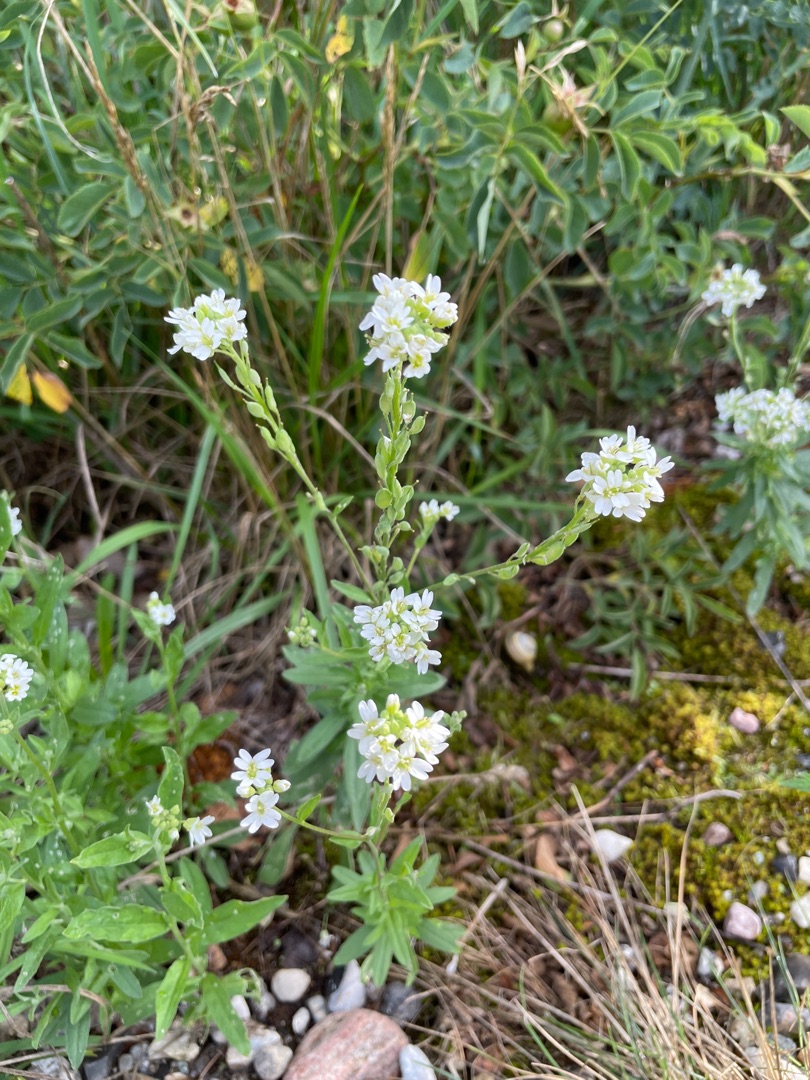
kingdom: Plantae
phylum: Tracheophyta
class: Magnoliopsida
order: Brassicales
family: Brassicaceae
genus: Berteroa
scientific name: Berteroa incana
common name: Kløvplade
